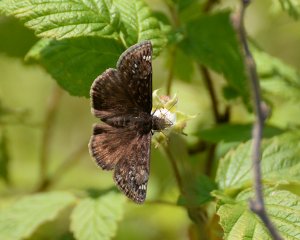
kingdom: Animalia
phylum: Arthropoda
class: Insecta
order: Lepidoptera
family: Hesperiidae
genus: Gesta
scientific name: Gesta
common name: Juvenal's Duskywing
